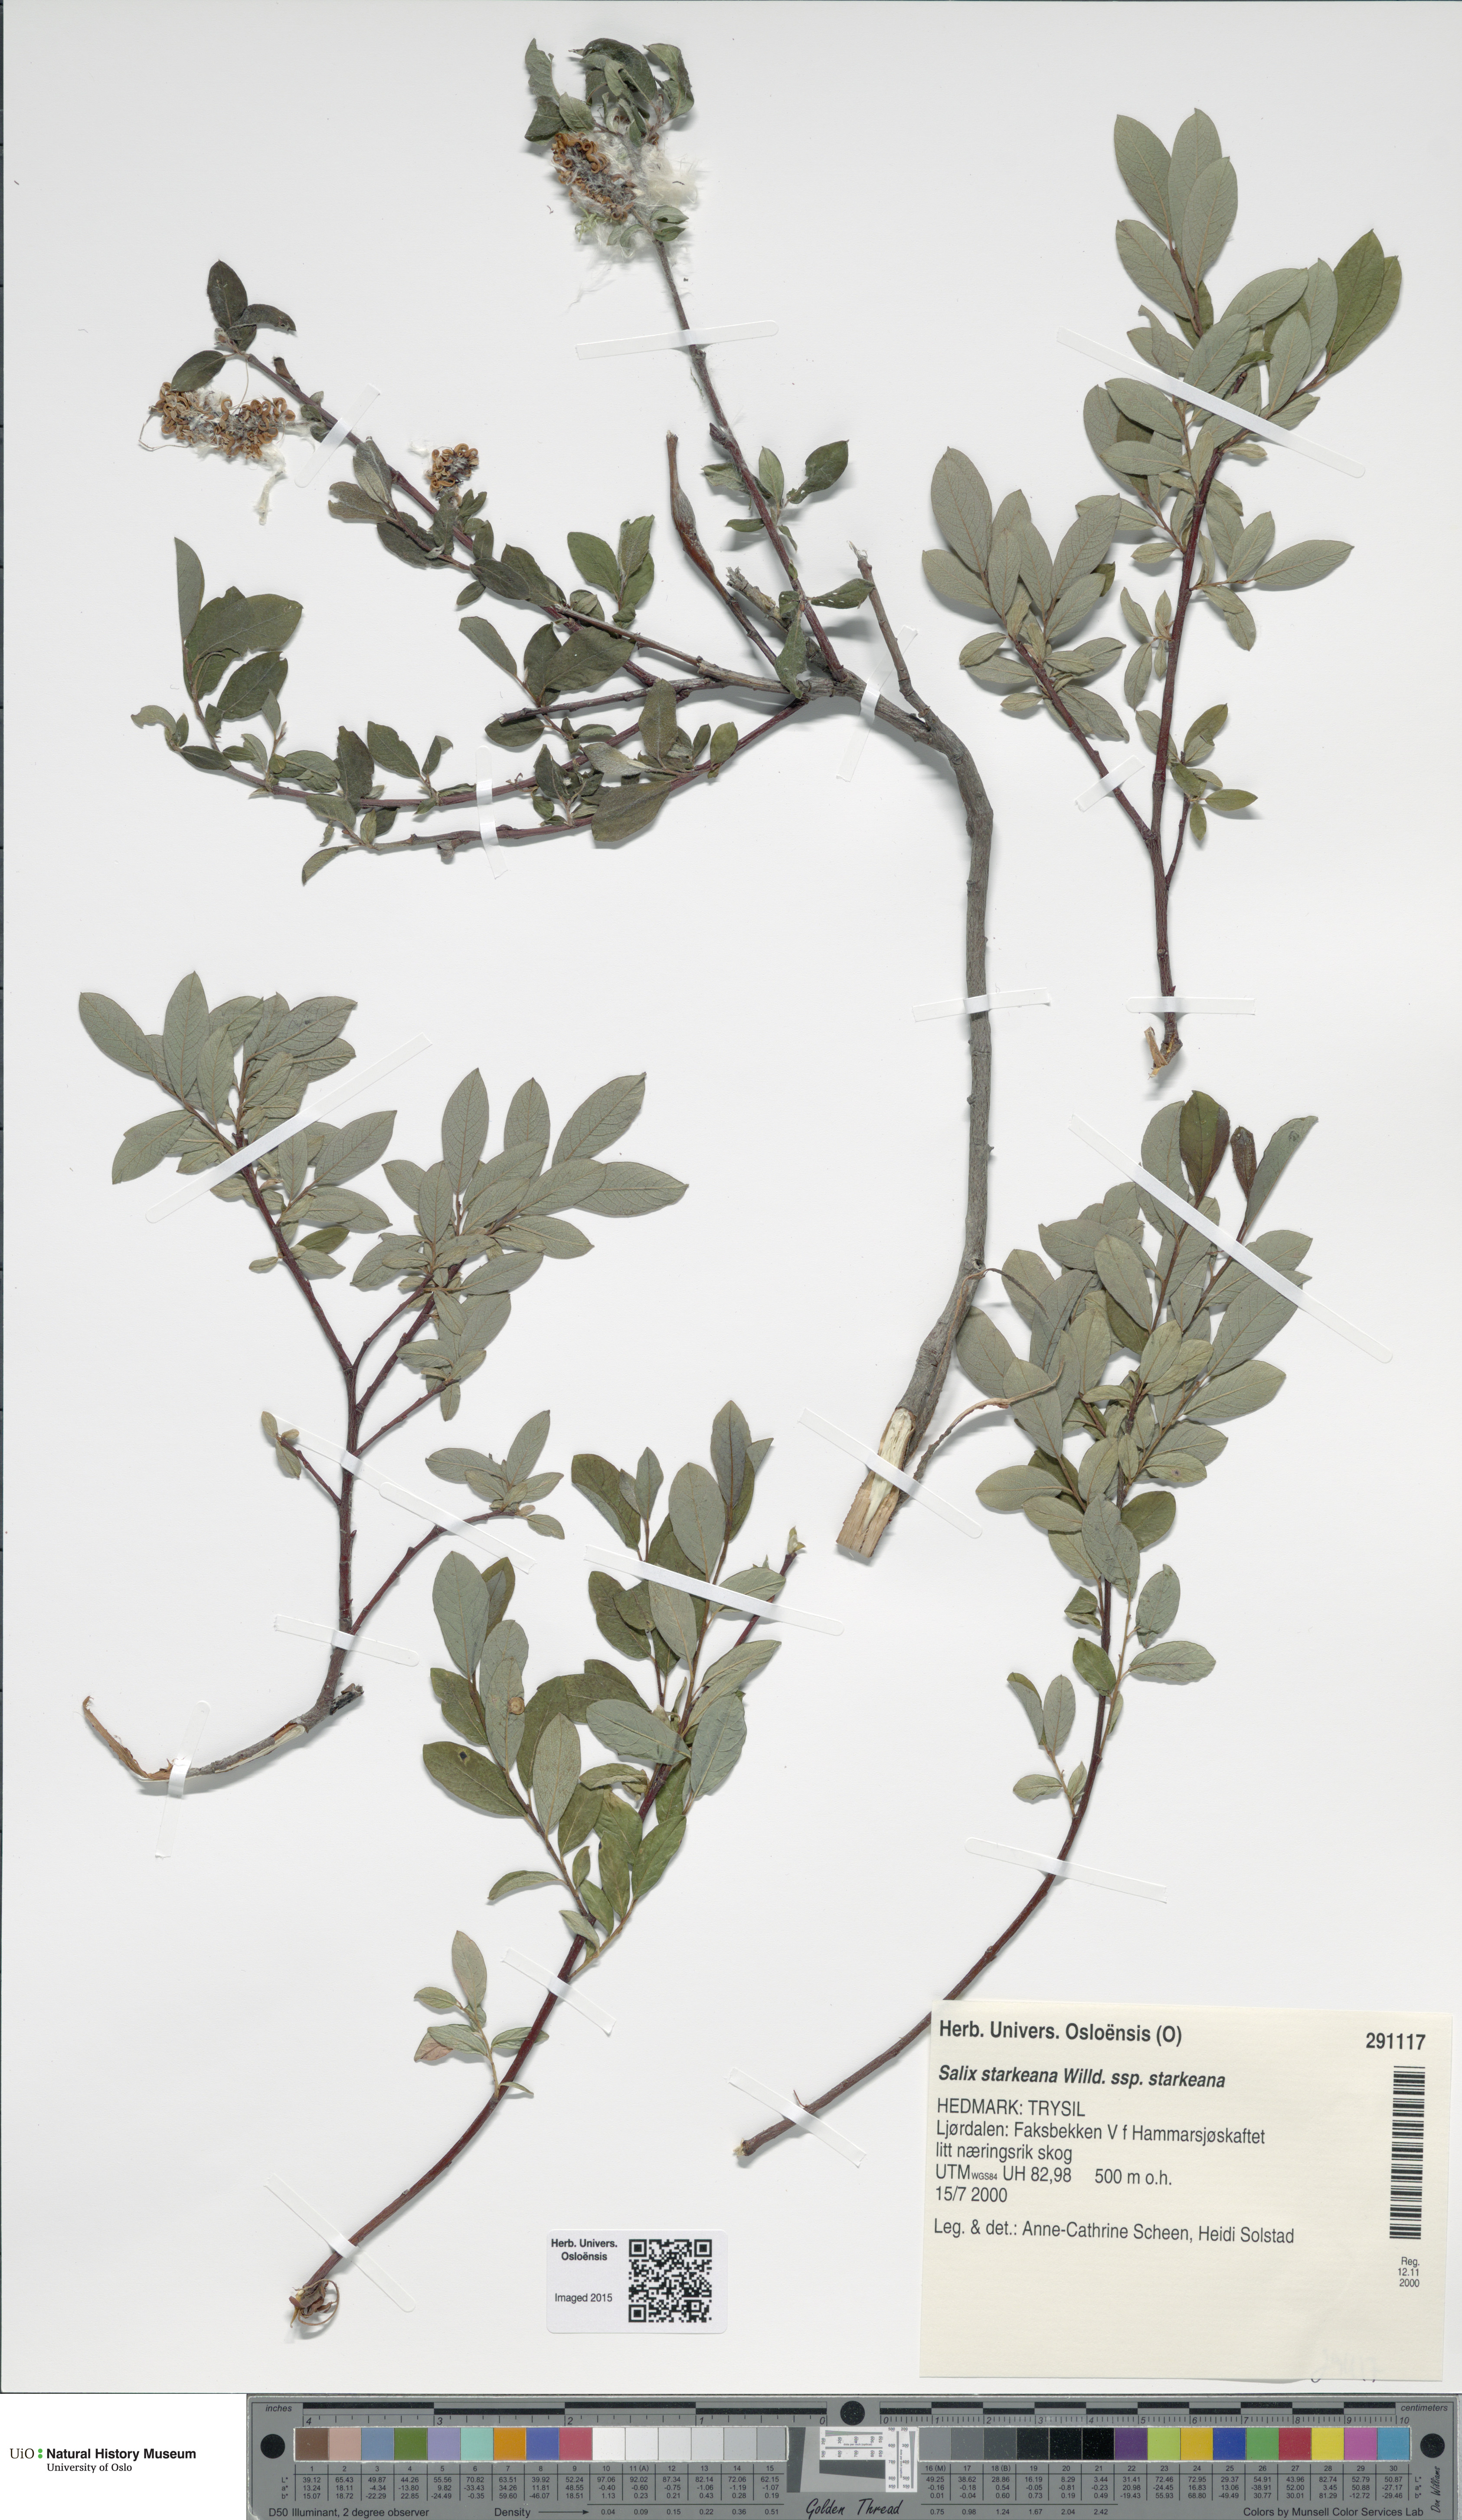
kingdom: Plantae
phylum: Tracheophyta
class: Magnoliopsida
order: Malpighiales
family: Salicaceae
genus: Salix
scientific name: Salix
